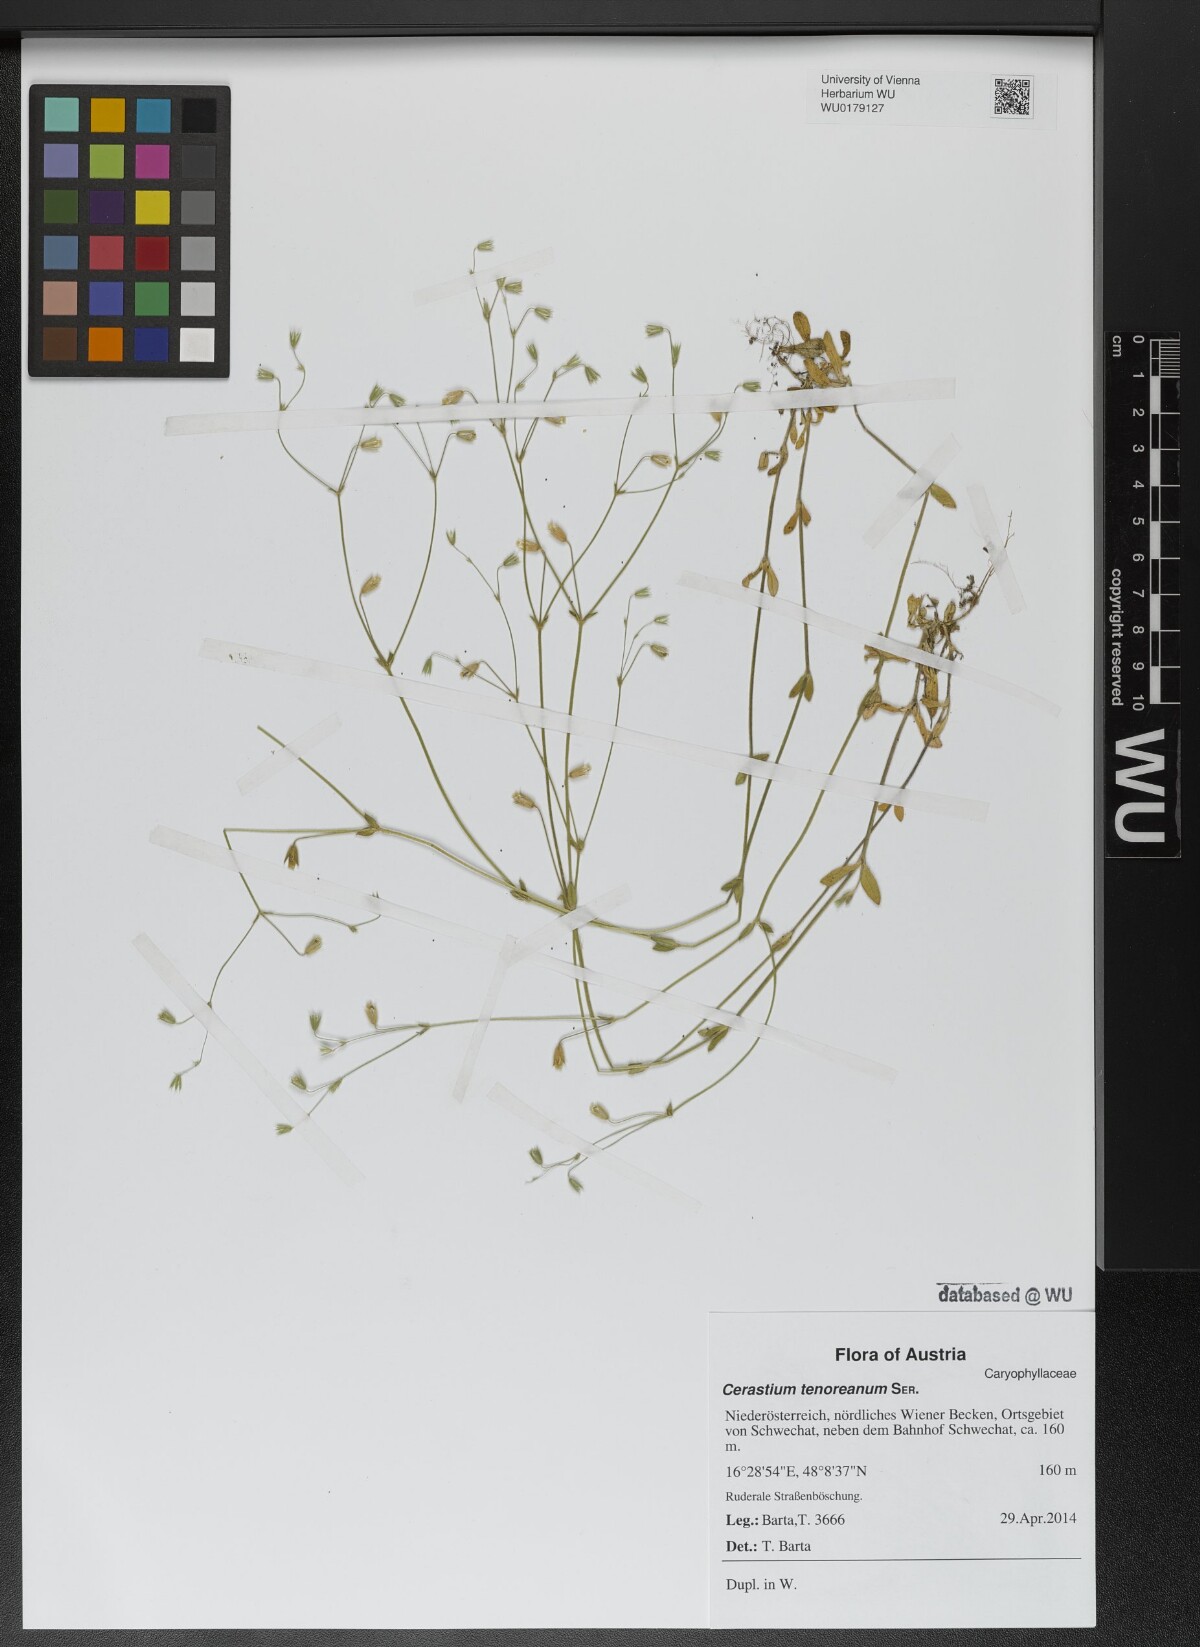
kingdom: Plantae
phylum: Tracheophyta
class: Magnoliopsida
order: Caryophyllales
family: Caryophyllaceae
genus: Cerastium
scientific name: Cerastium tenoreanum
